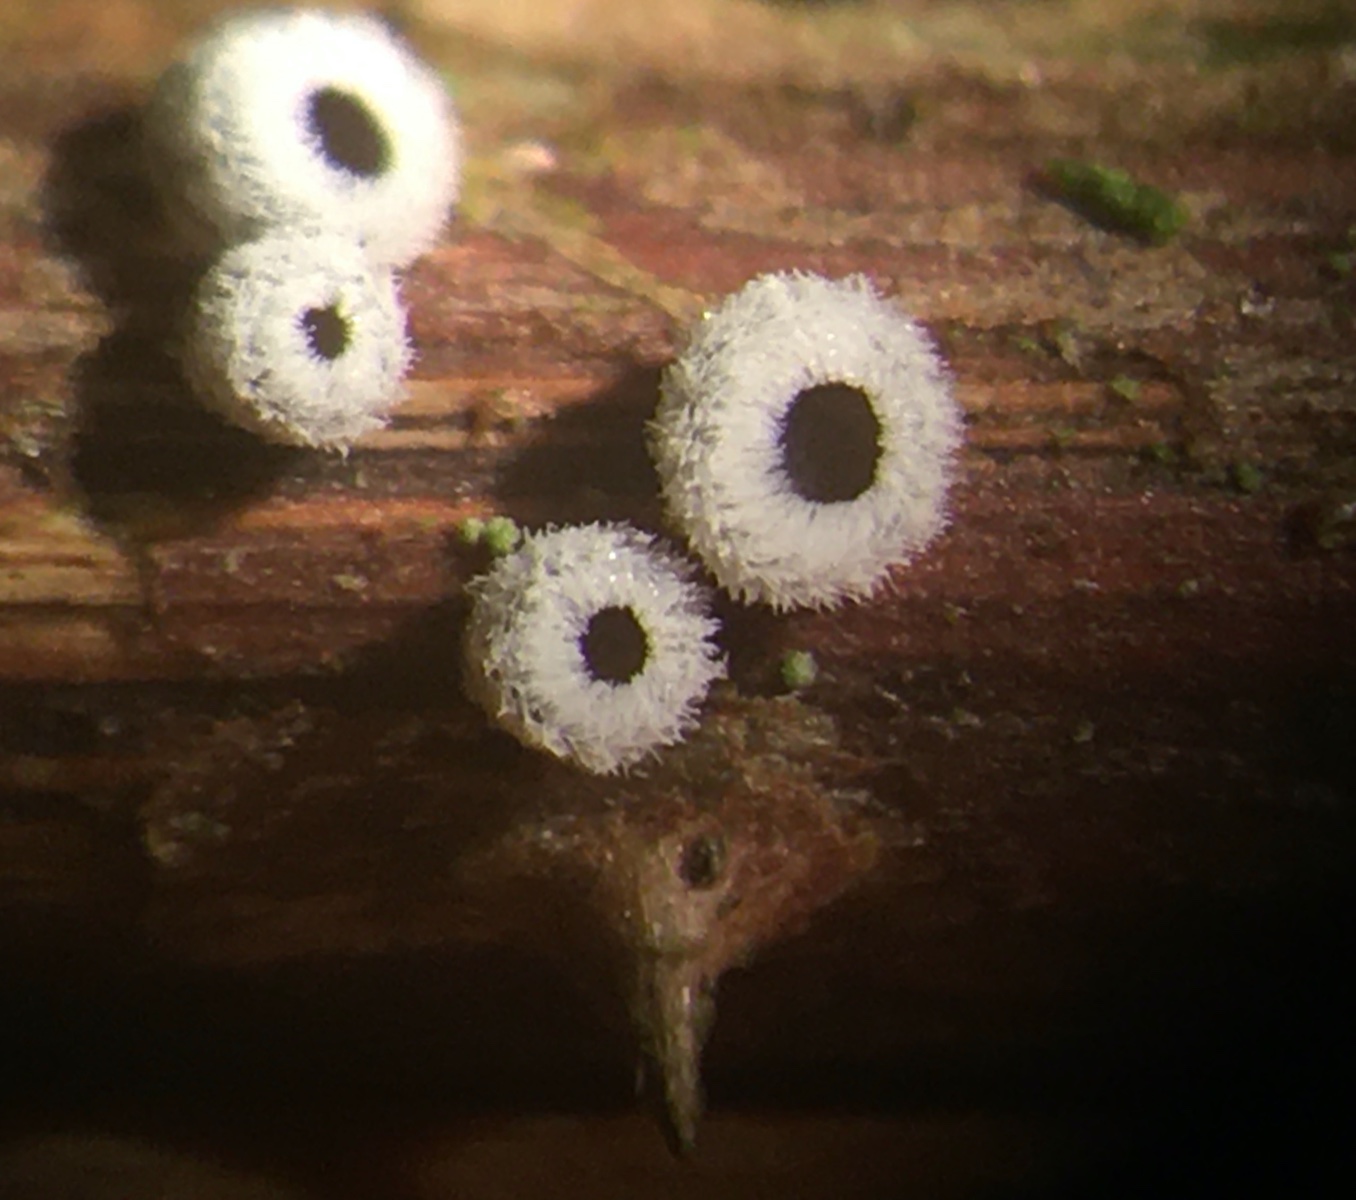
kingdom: Fungi
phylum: Basidiomycota
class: Agaricomycetes
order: Agaricales
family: Niaceae
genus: Lachnella
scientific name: Lachnella alboviolascens
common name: grå frynserede
